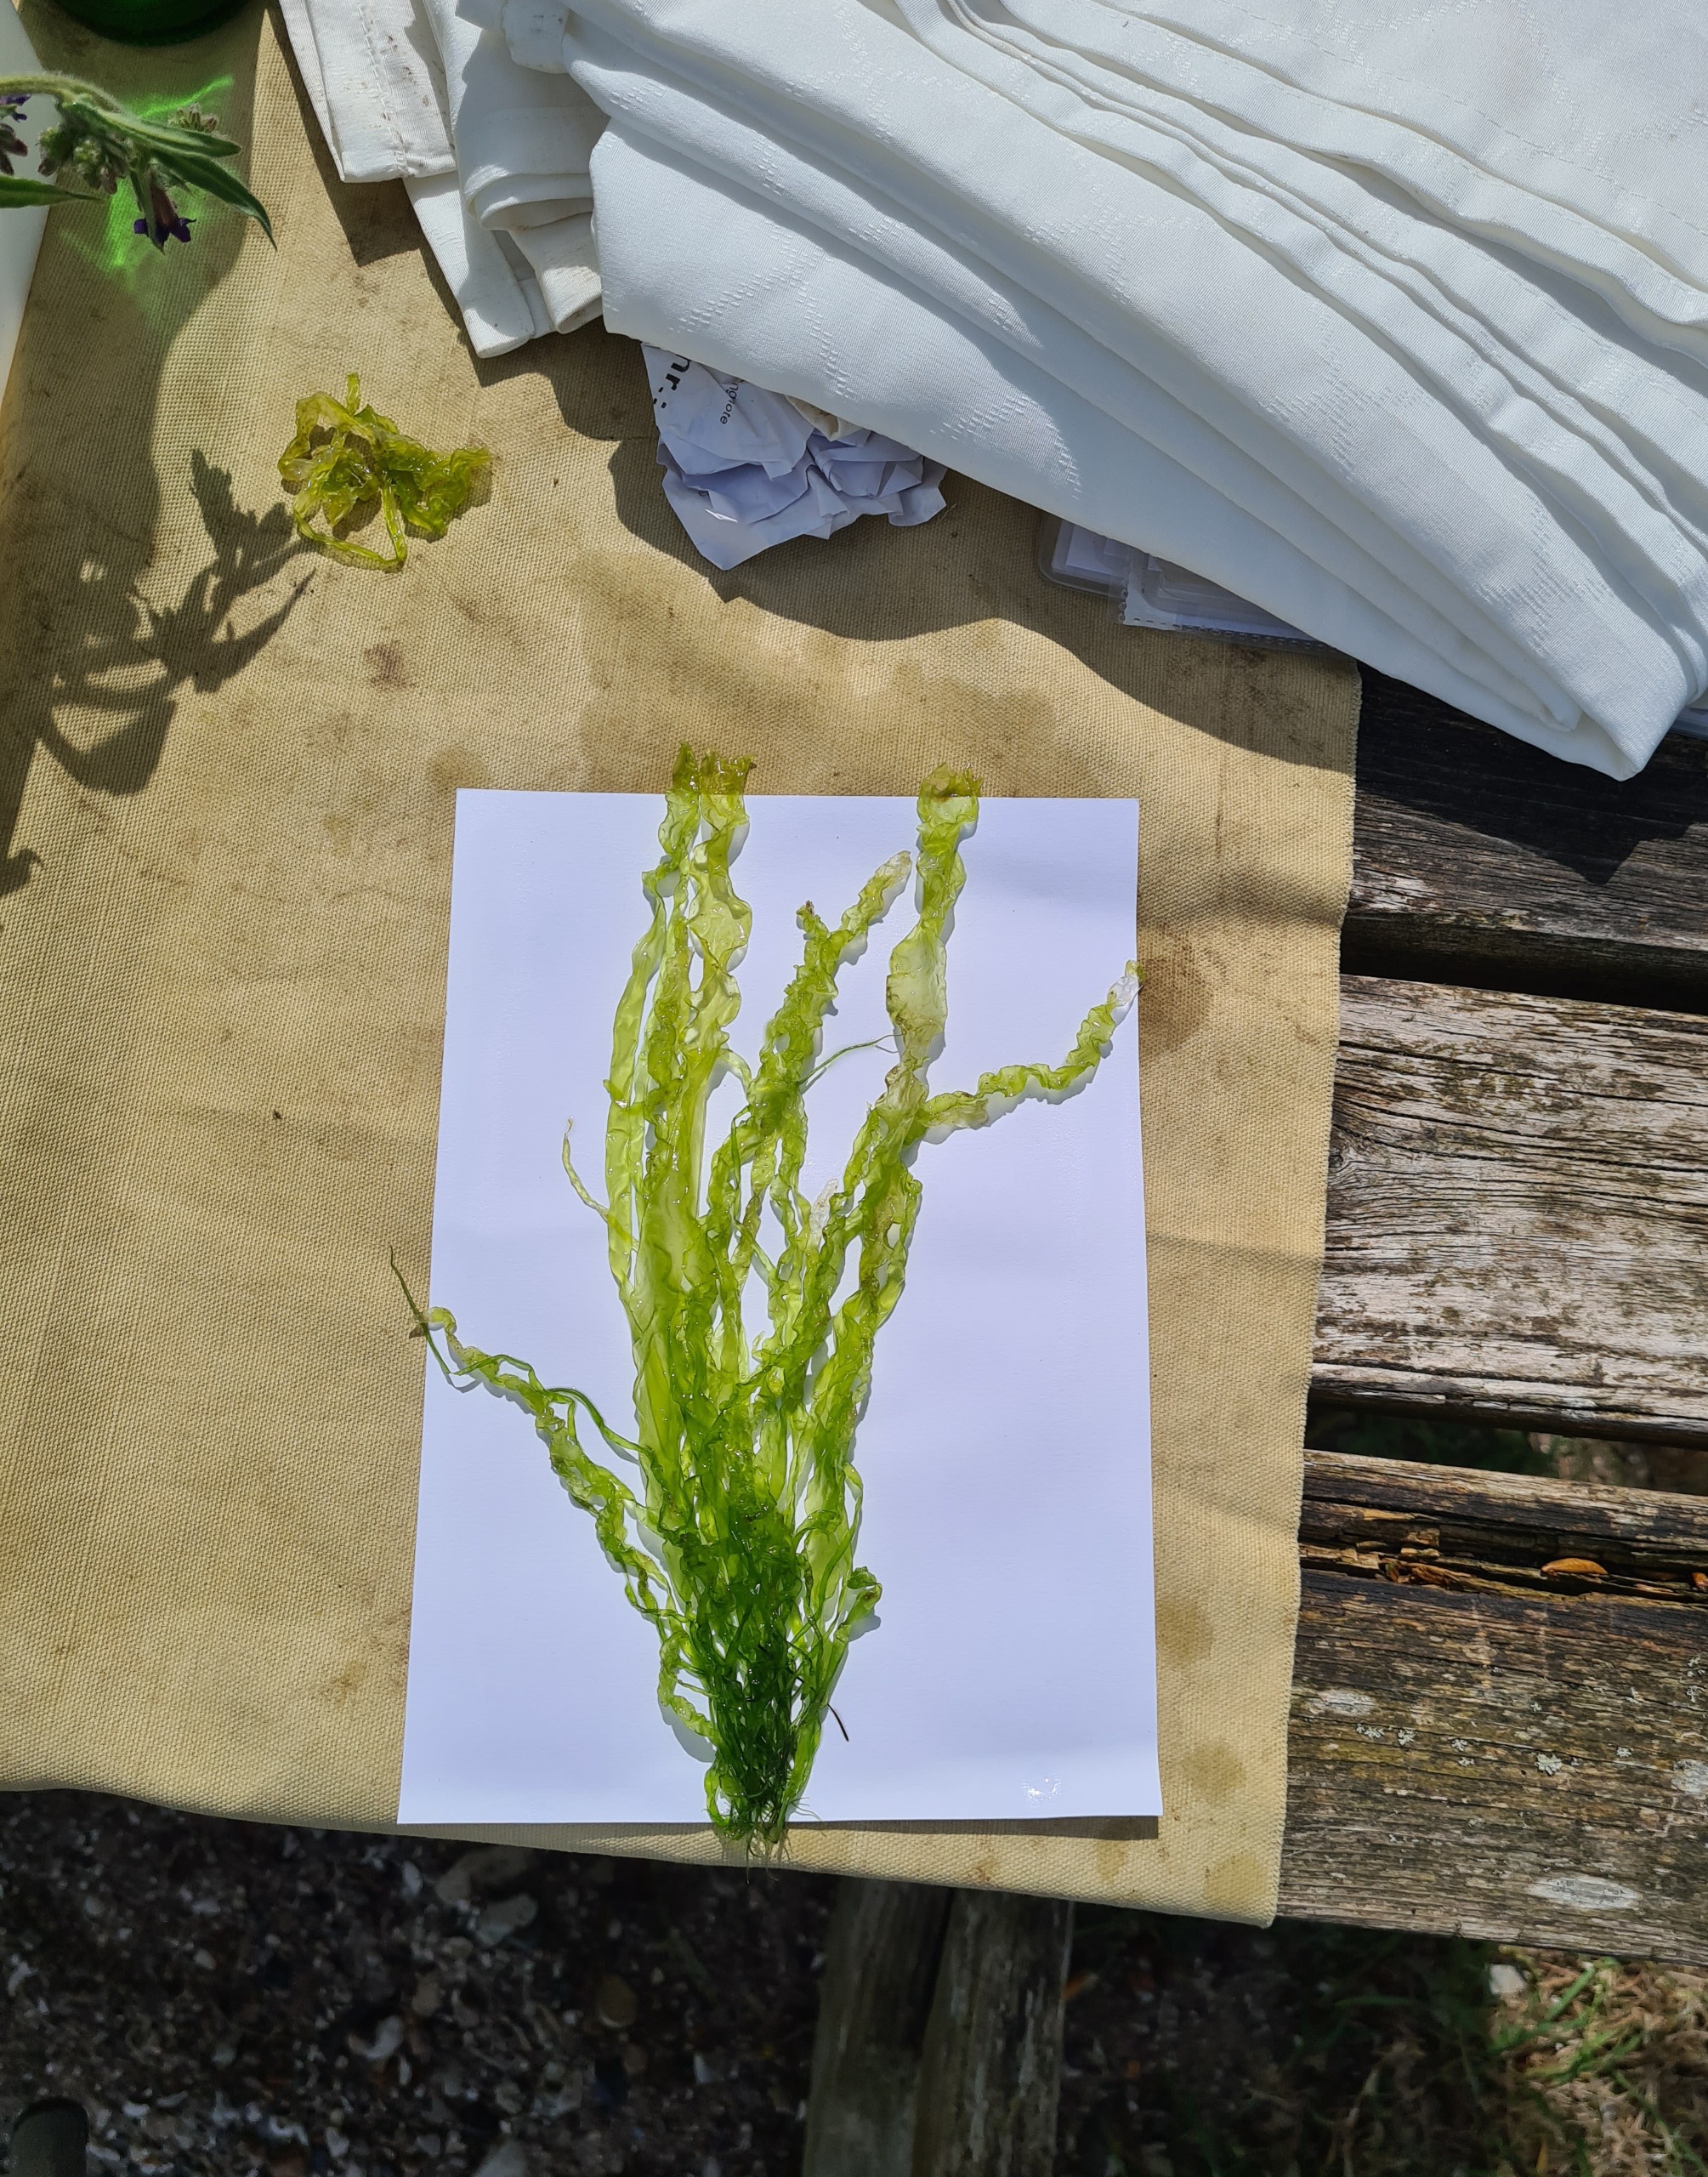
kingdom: Plantae
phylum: Chlorophyta
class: Ulvophyceae
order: Ulvales
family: Ulvaceae
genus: Ulva
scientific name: Ulva intestinalis
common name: Tarm-rørhinde
